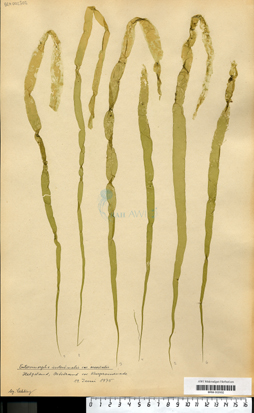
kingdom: Plantae
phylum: Chlorophyta
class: Ulvophyceae
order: Ulvales
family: Ulvaceae
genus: Ulva
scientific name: Ulva intestinalis
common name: Gut weed
